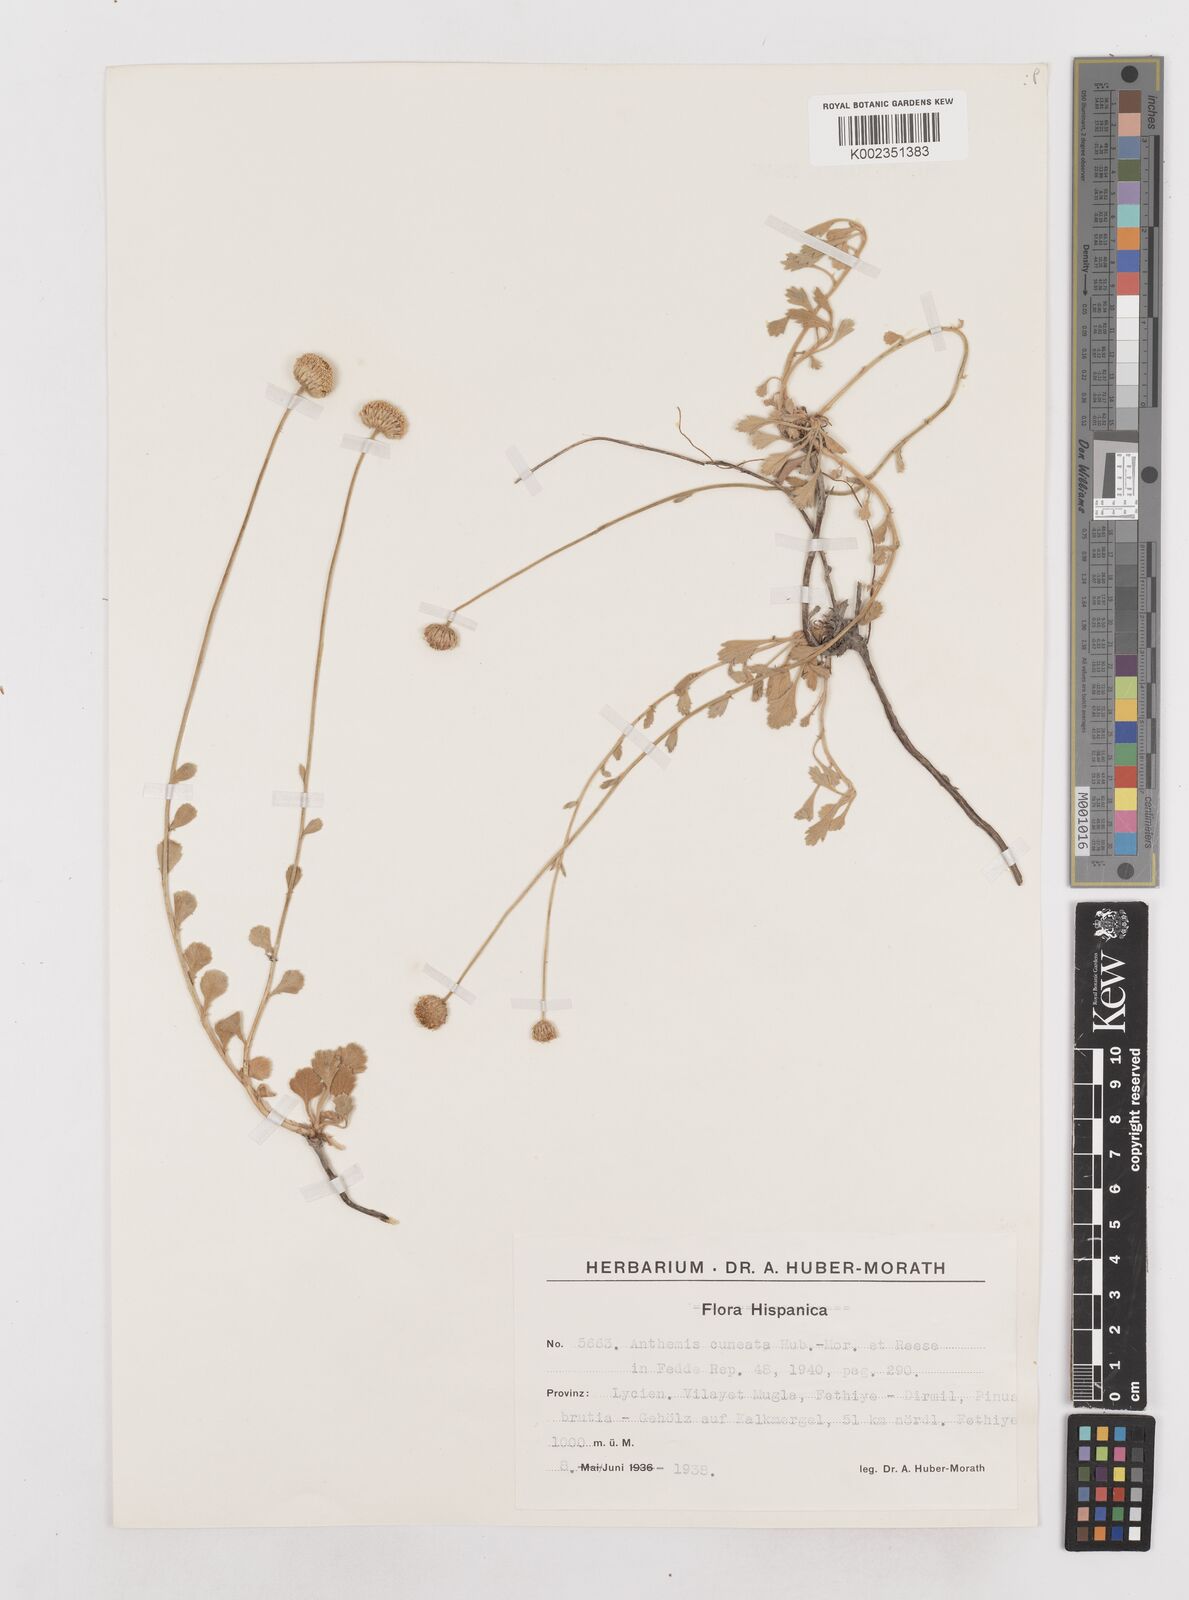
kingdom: Plantae
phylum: Tracheophyta
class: Magnoliopsida
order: Asterales
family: Asteraceae
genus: Anthemis
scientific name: Anthemis cuneata
